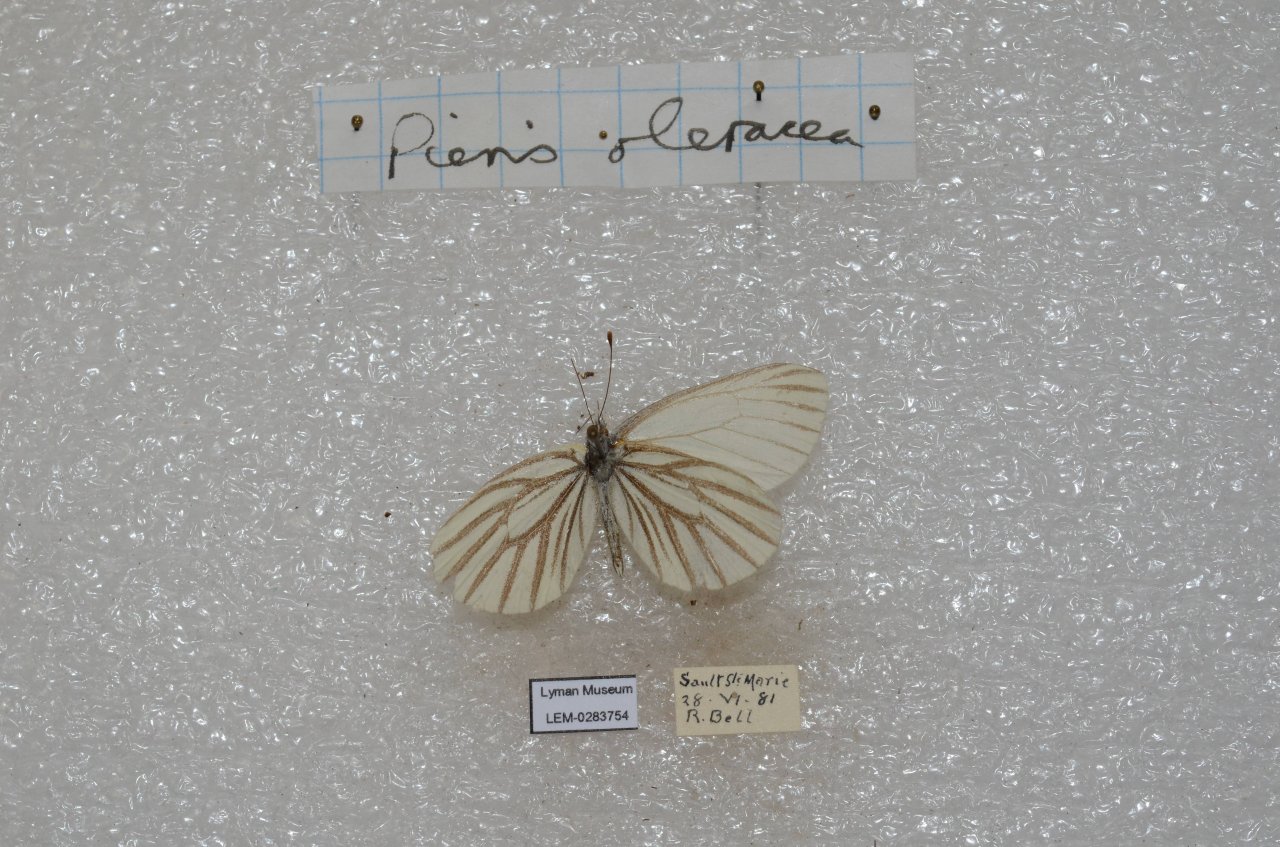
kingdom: Animalia
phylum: Arthropoda
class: Insecta
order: Lepidoptera
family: Pieridae
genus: Pieris
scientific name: Pieris oleracea
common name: Mustard White
